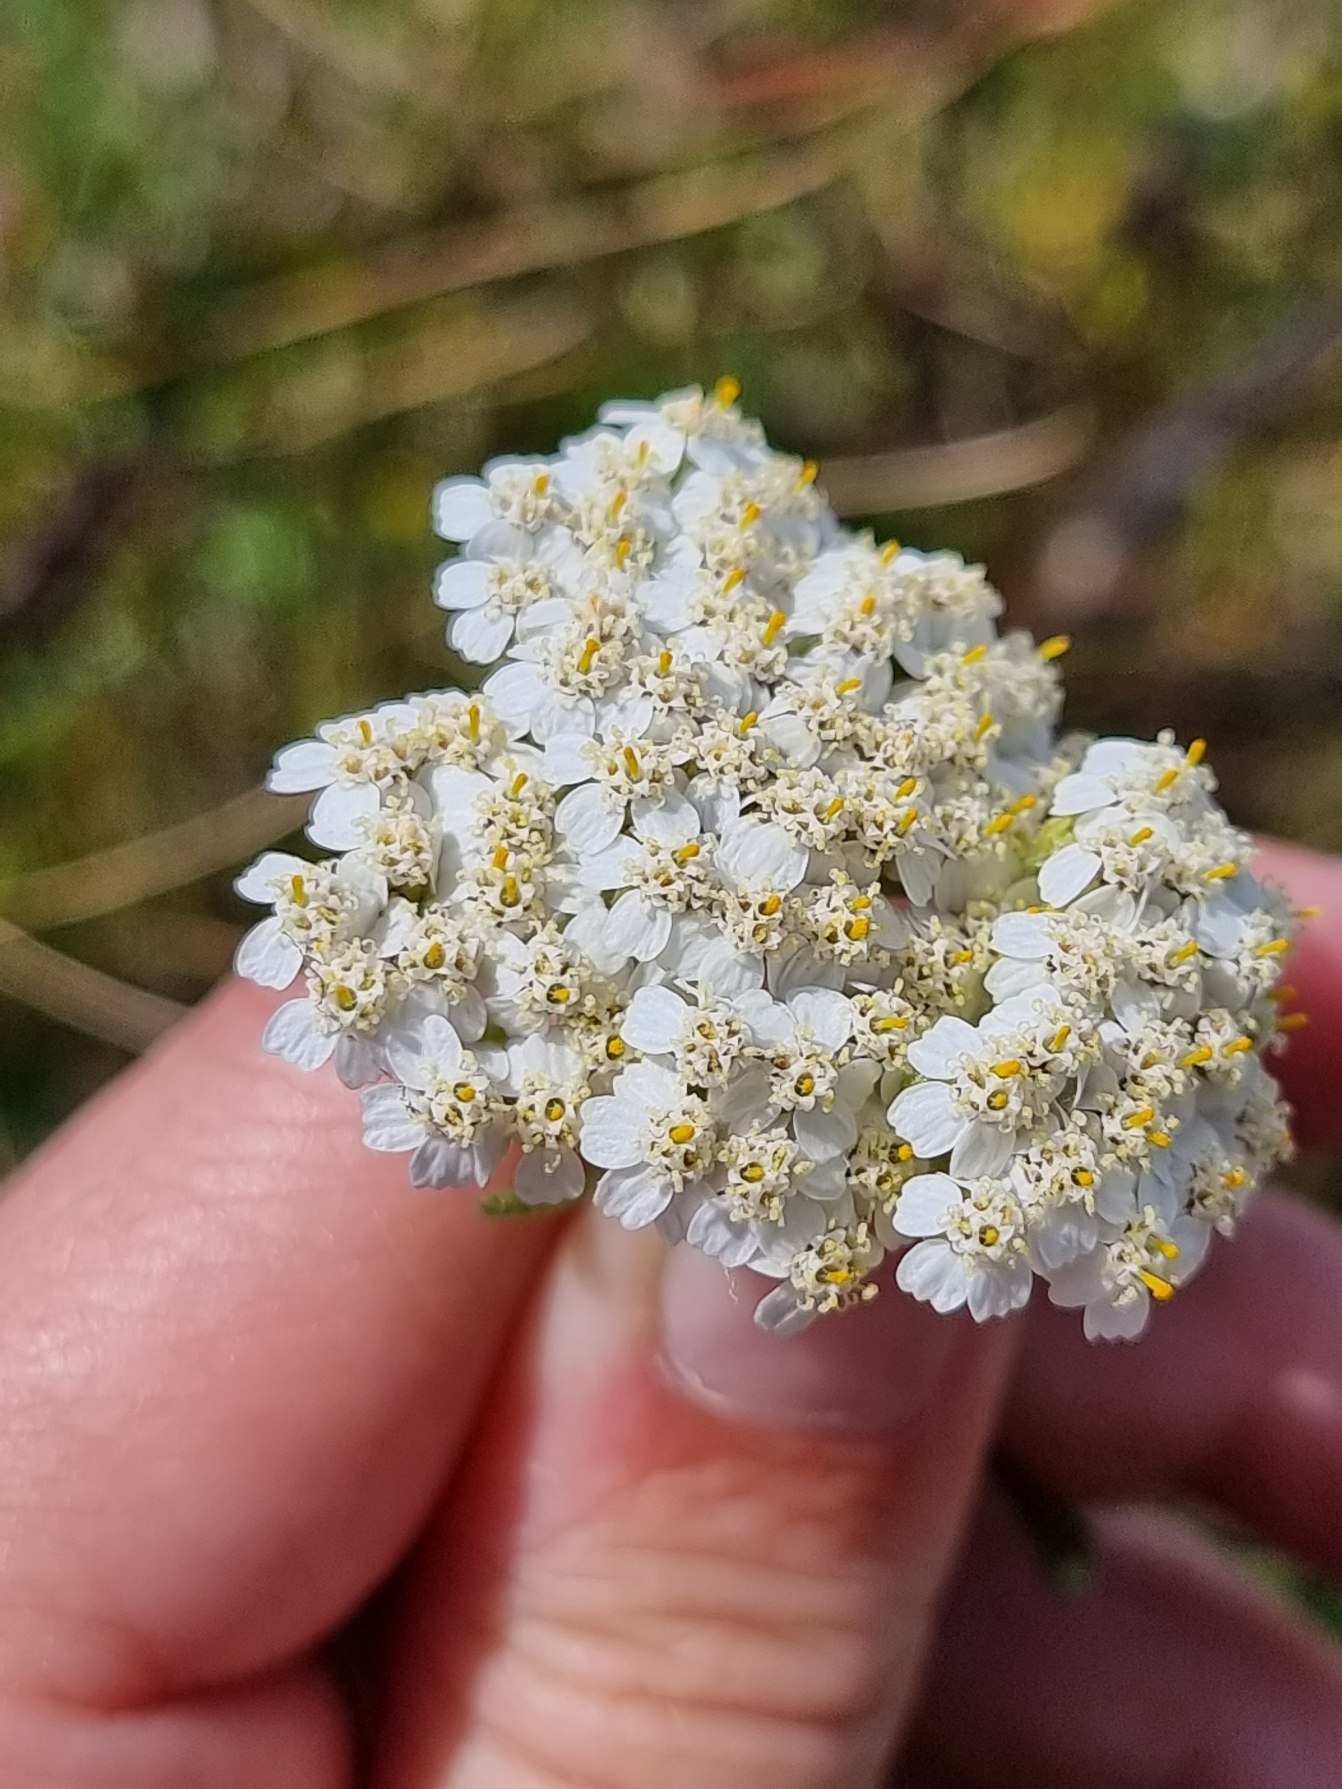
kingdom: Plantae
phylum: Tracheophyta
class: Magnoliopsida
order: Asterales
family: Asteraceae
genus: Achillea
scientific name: Achillea millefolium
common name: Almindelig røllike
